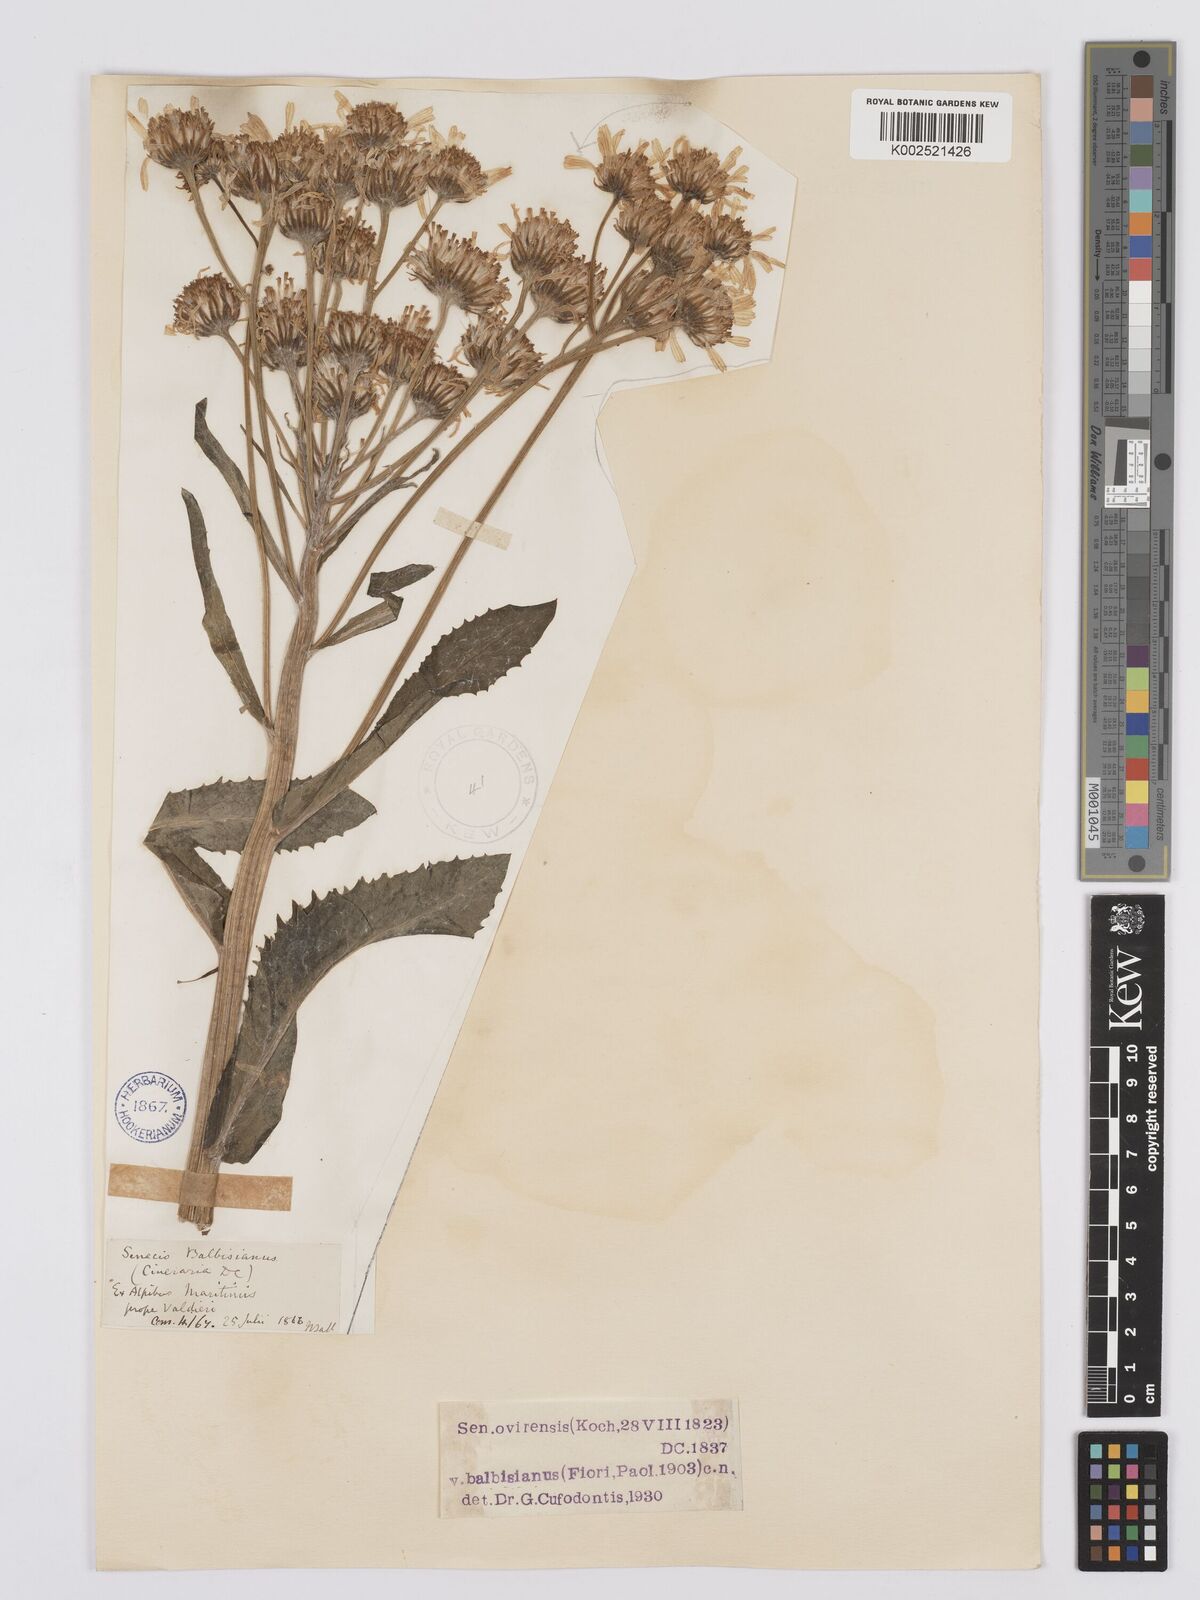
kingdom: Plantae
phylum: Tracheophyta
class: Magnoliopsida
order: Asterales
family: Asteraceae
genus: Tephroseris
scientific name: Tephroseris balbisiana
